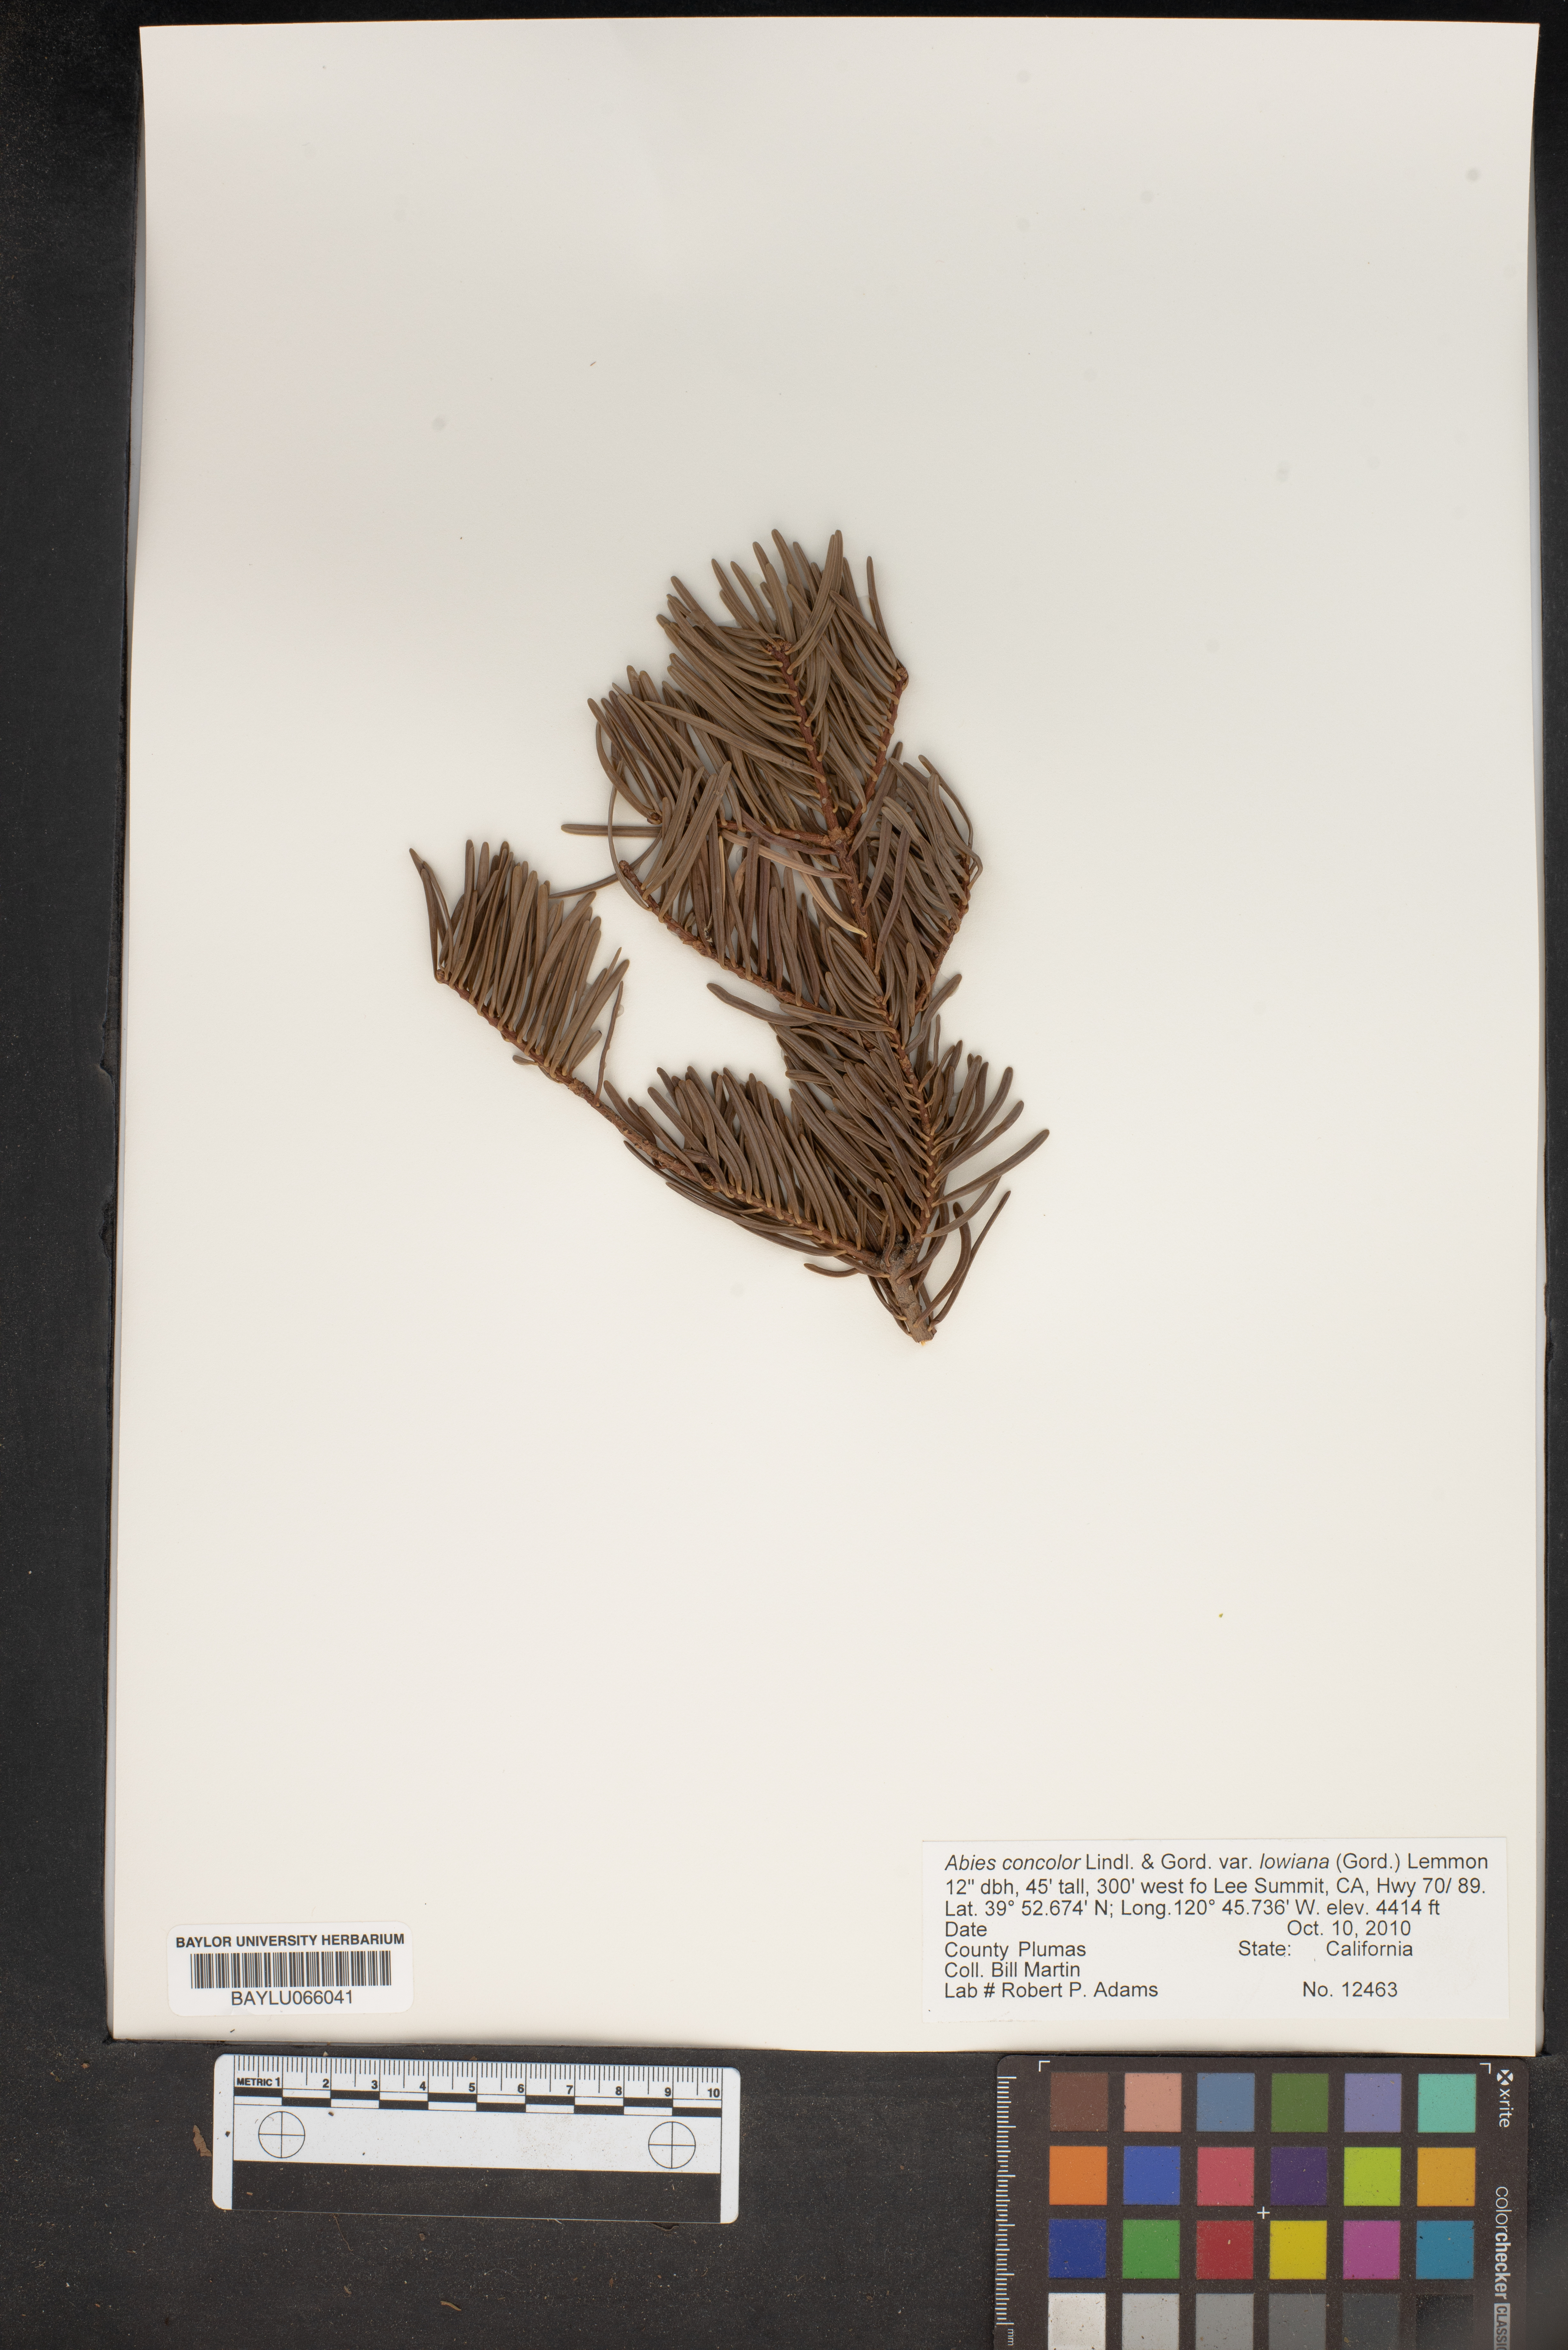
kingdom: Plantae
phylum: Tracheophyta
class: Pinopsida
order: Pinales
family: Pinaceae
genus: Abies
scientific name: Abies concolor
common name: Colorado fir
